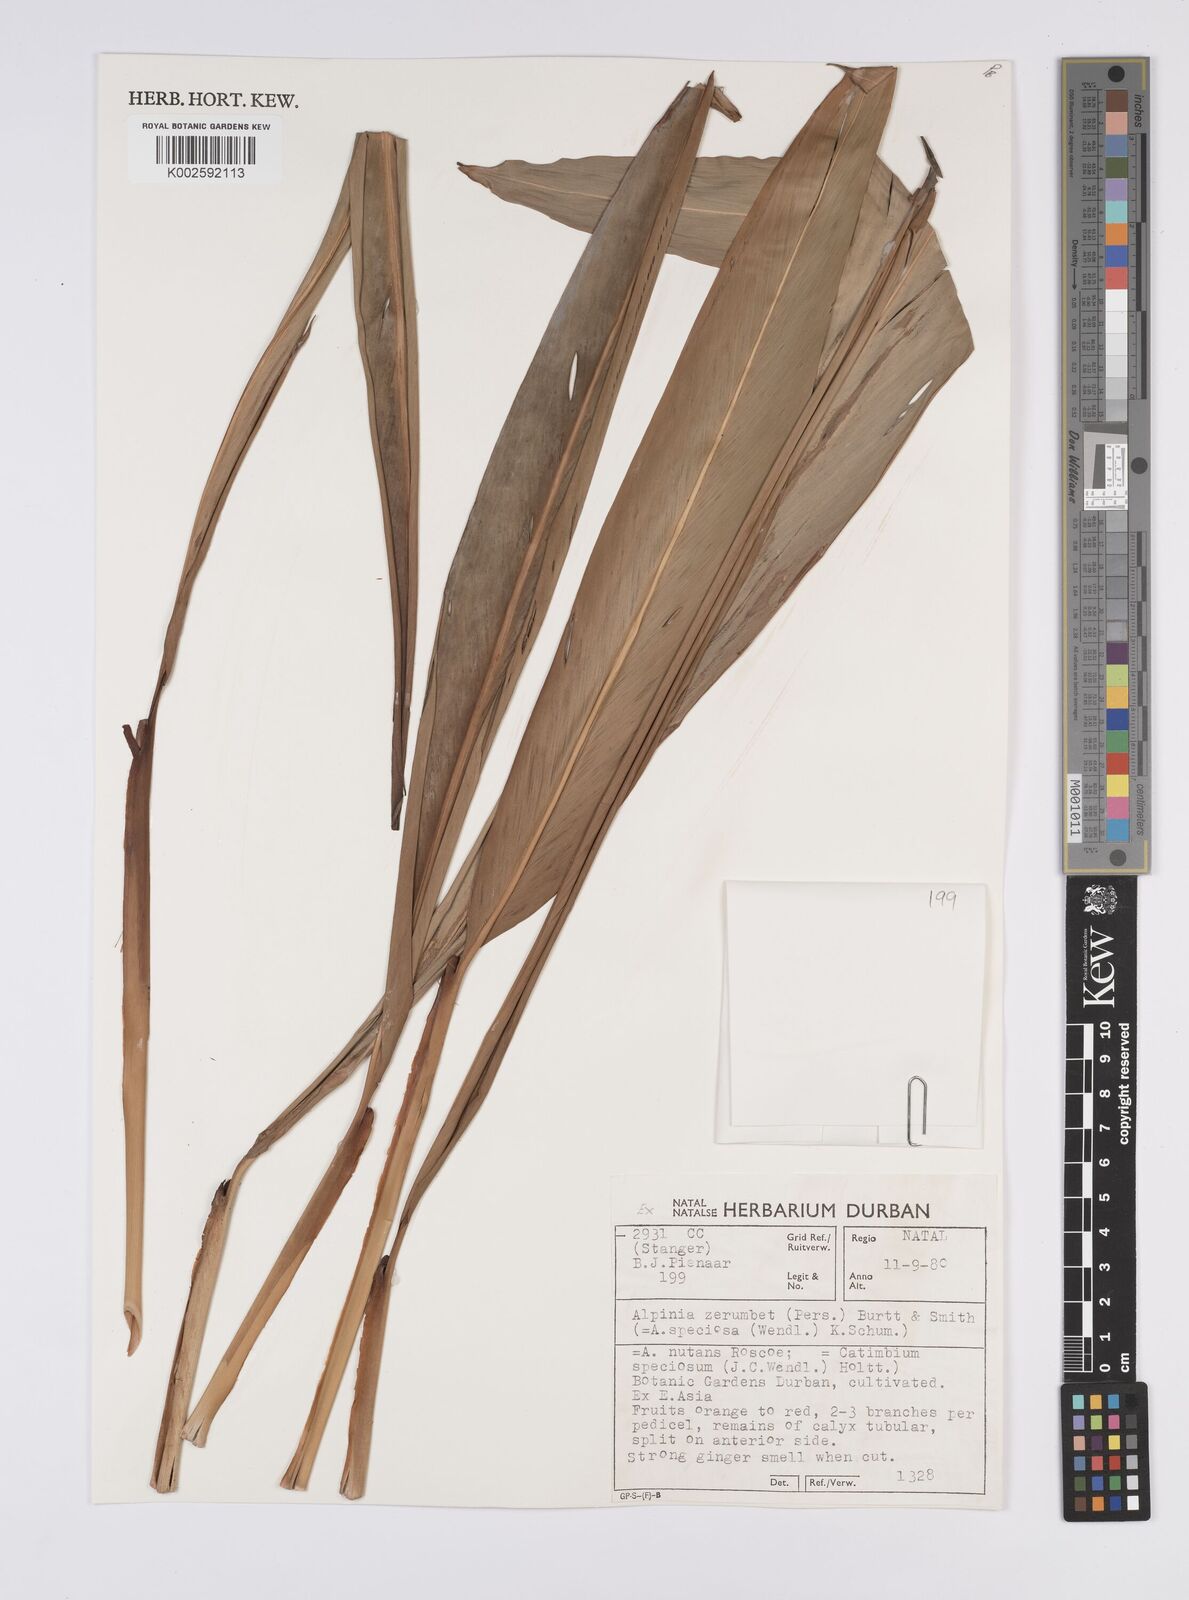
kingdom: Plantae
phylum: Tracheophyta
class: Liliopsida
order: Zingiberales
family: Zingiberaceae
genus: Alpinia
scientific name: Alpinia zerumbet
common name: Shellplant
